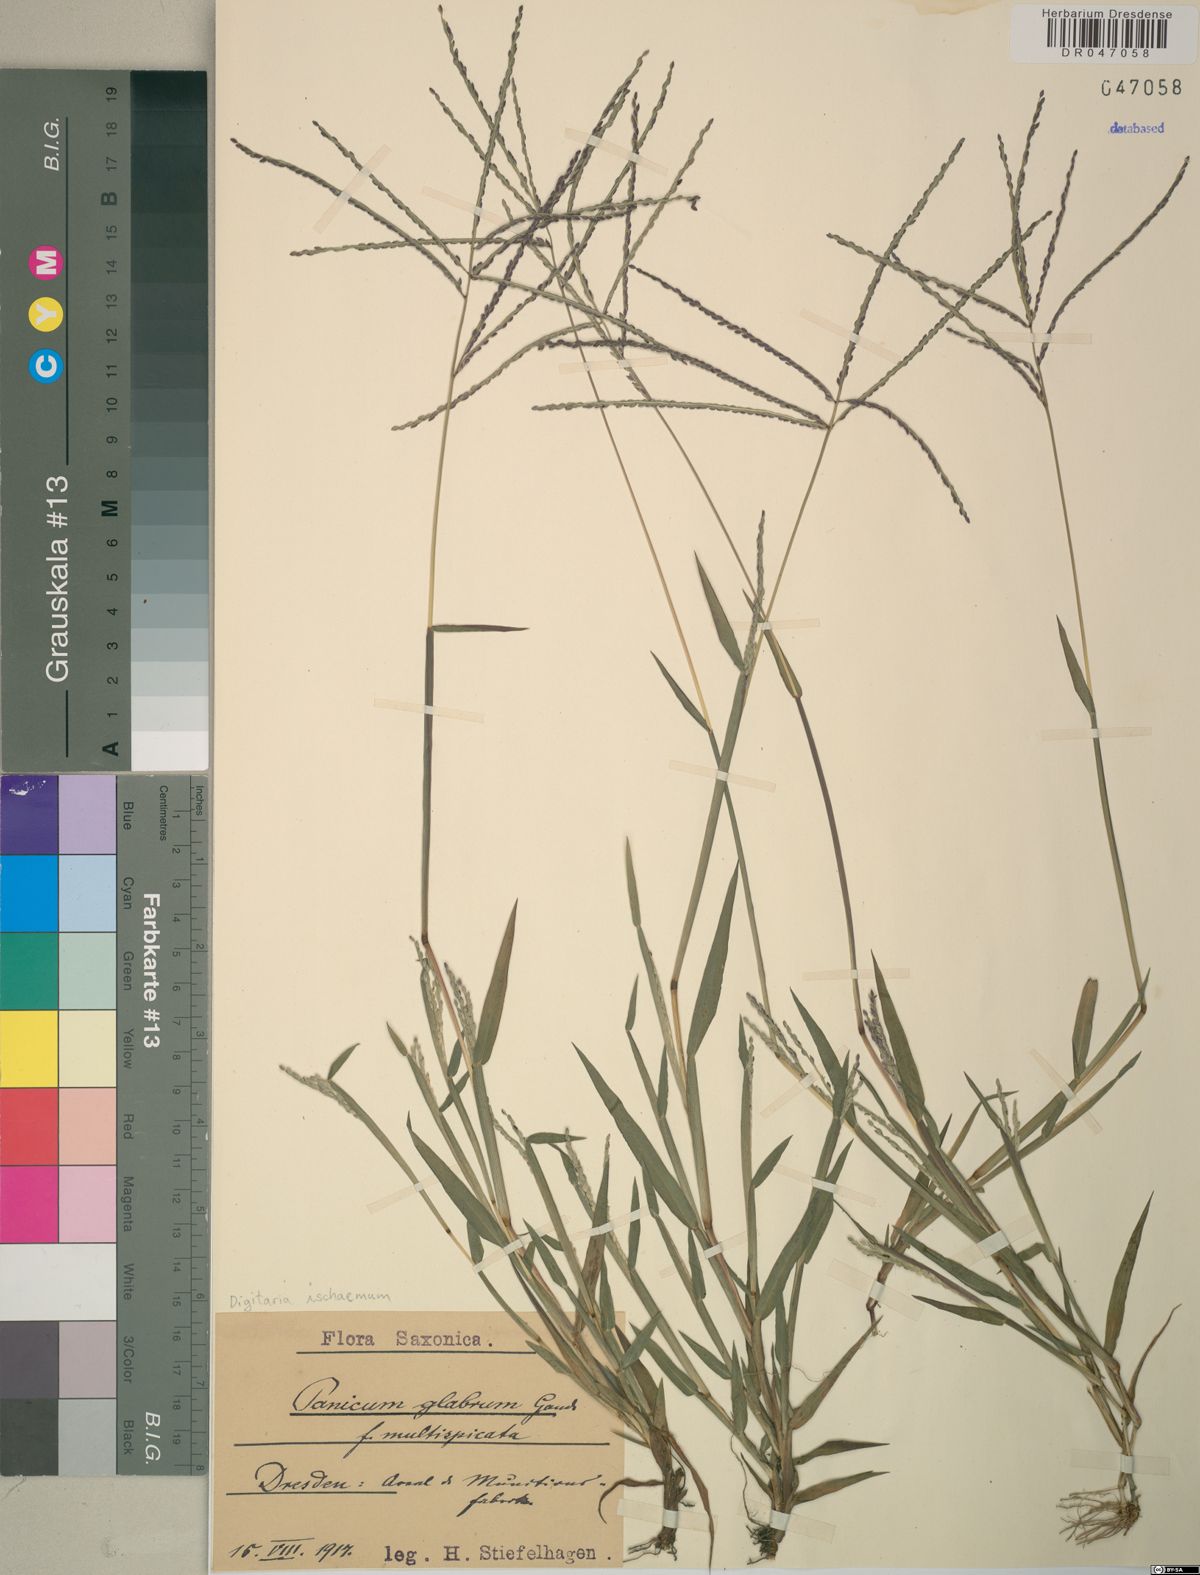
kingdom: Plantae
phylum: Tracheophyta
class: Liliopsida
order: Poales
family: Poaceae
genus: Digitaria
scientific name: Digitaria ischaemum
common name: Smooth crabgrass
